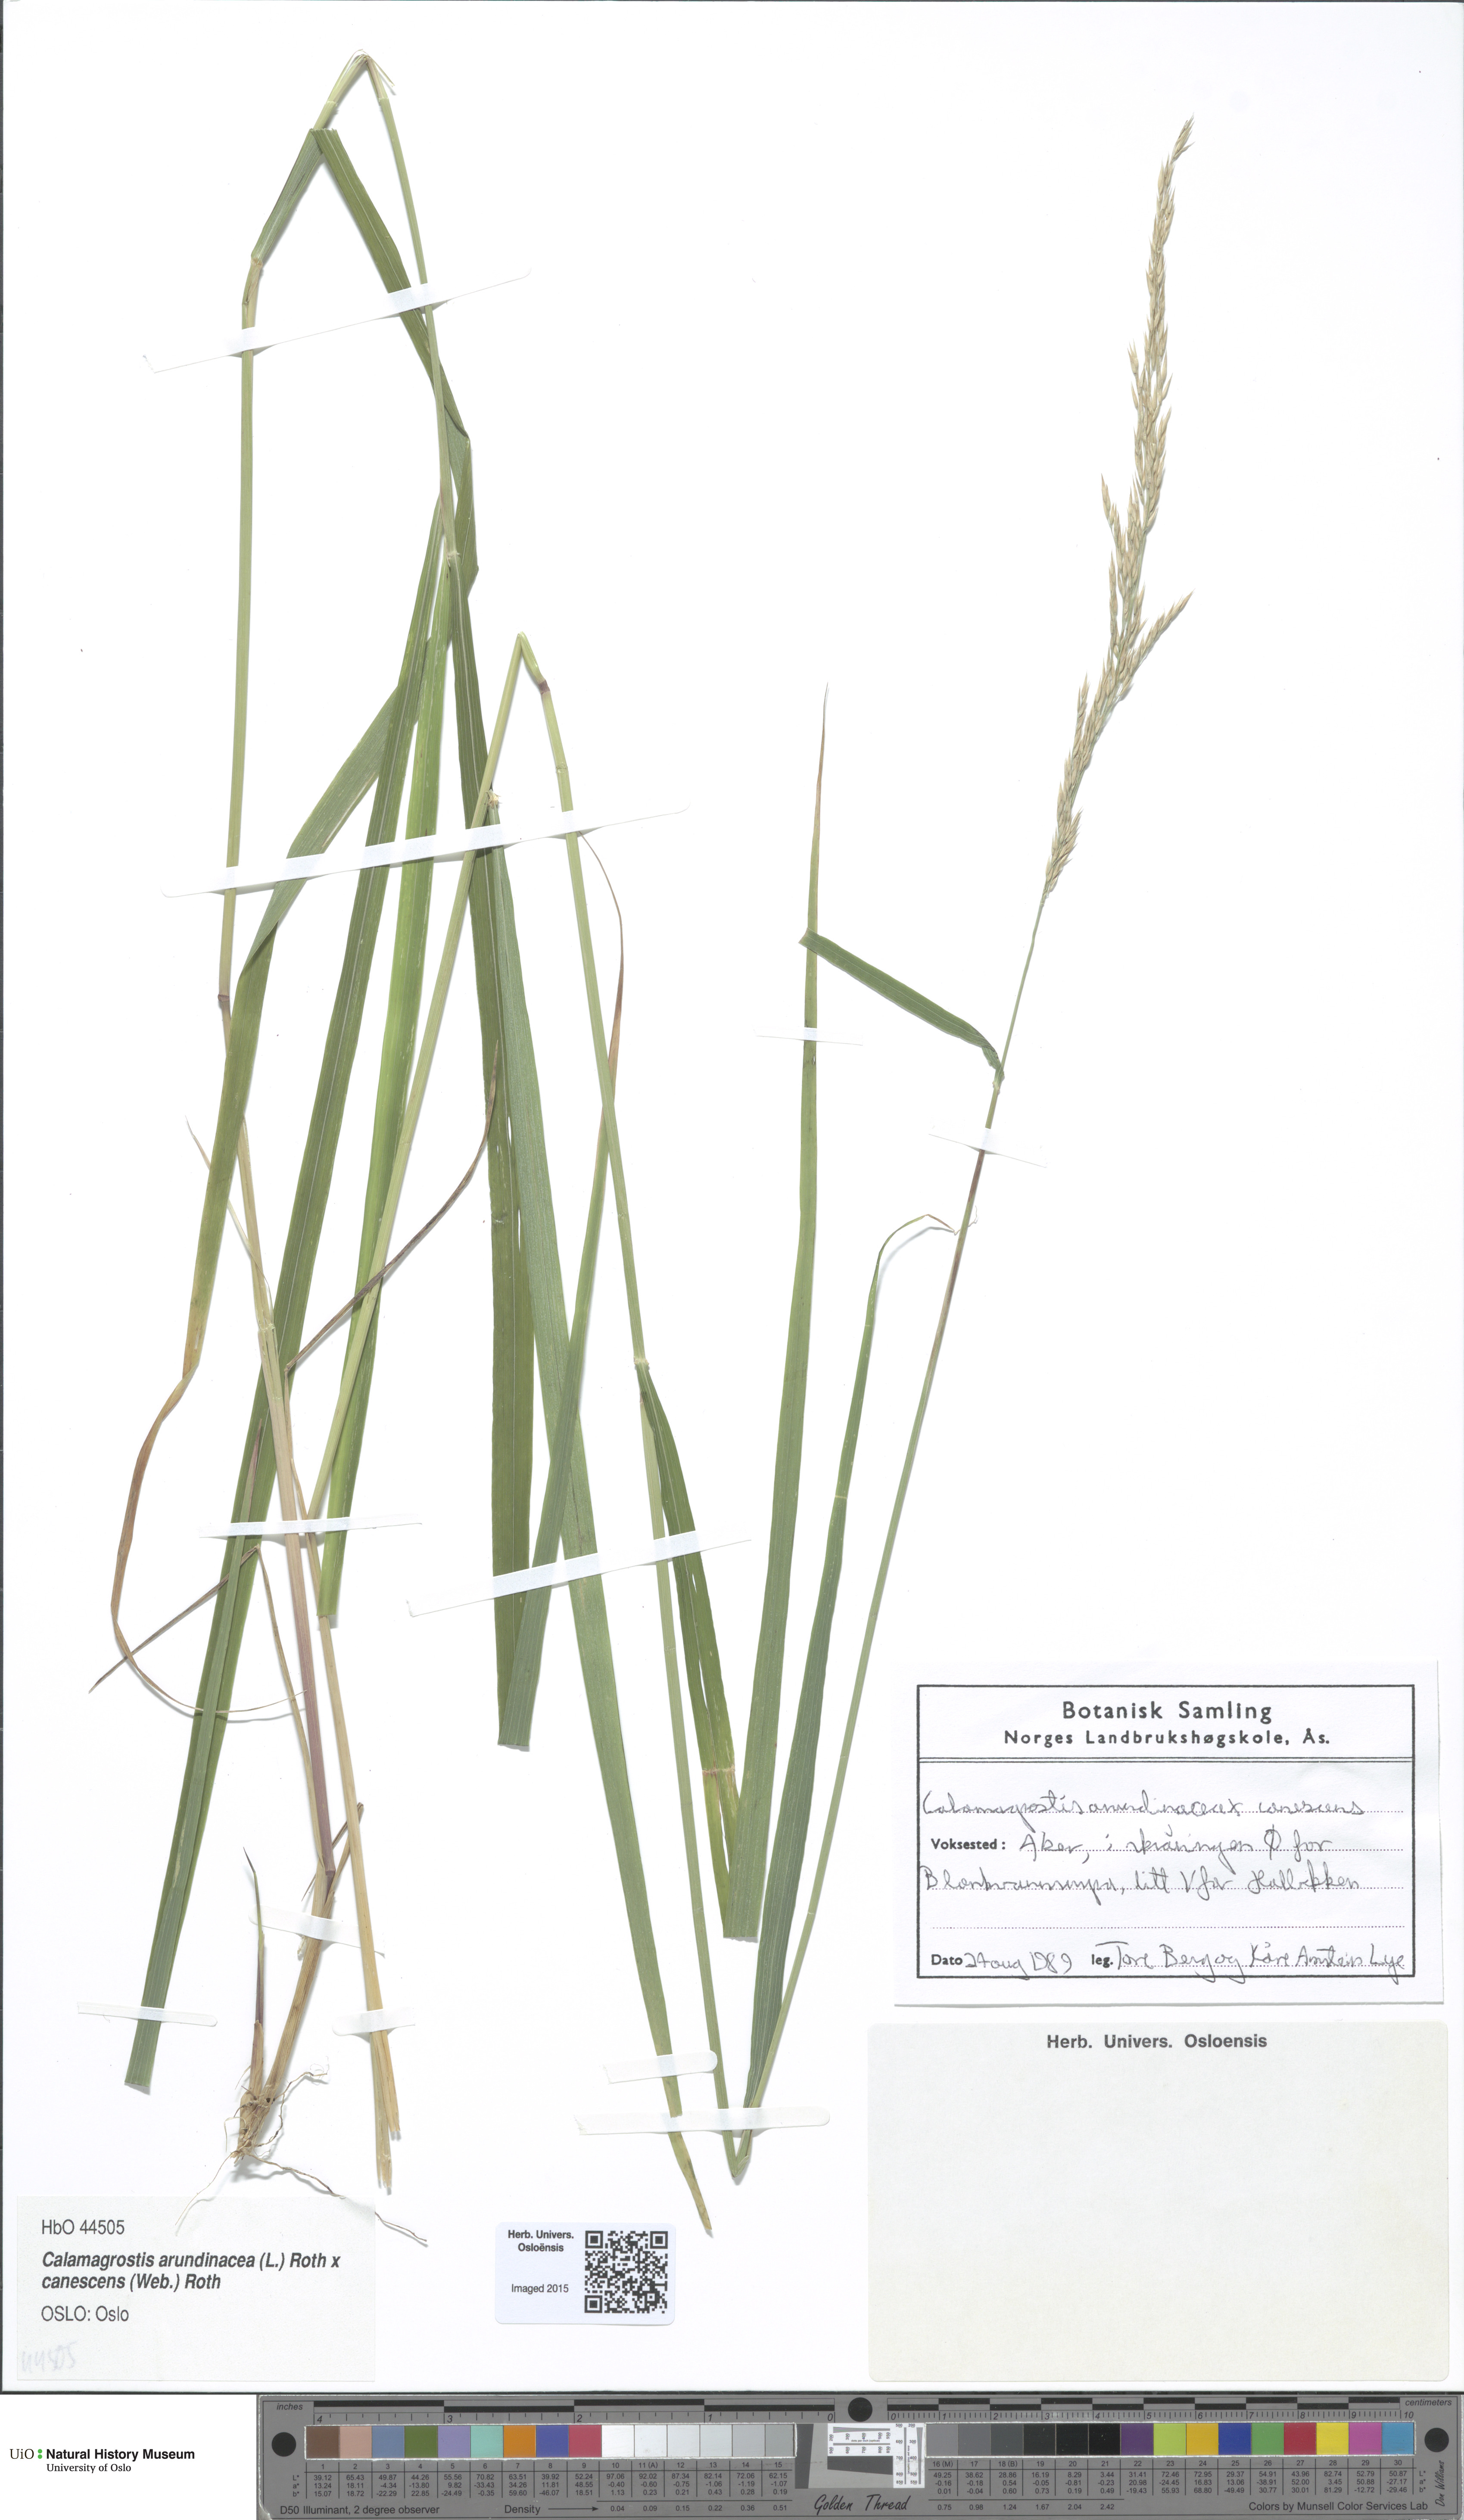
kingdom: Plantae
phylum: Tracheophyta
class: Liliopsida
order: Poales
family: Poaceae
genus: Calamagrostis
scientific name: Calamagrostis
